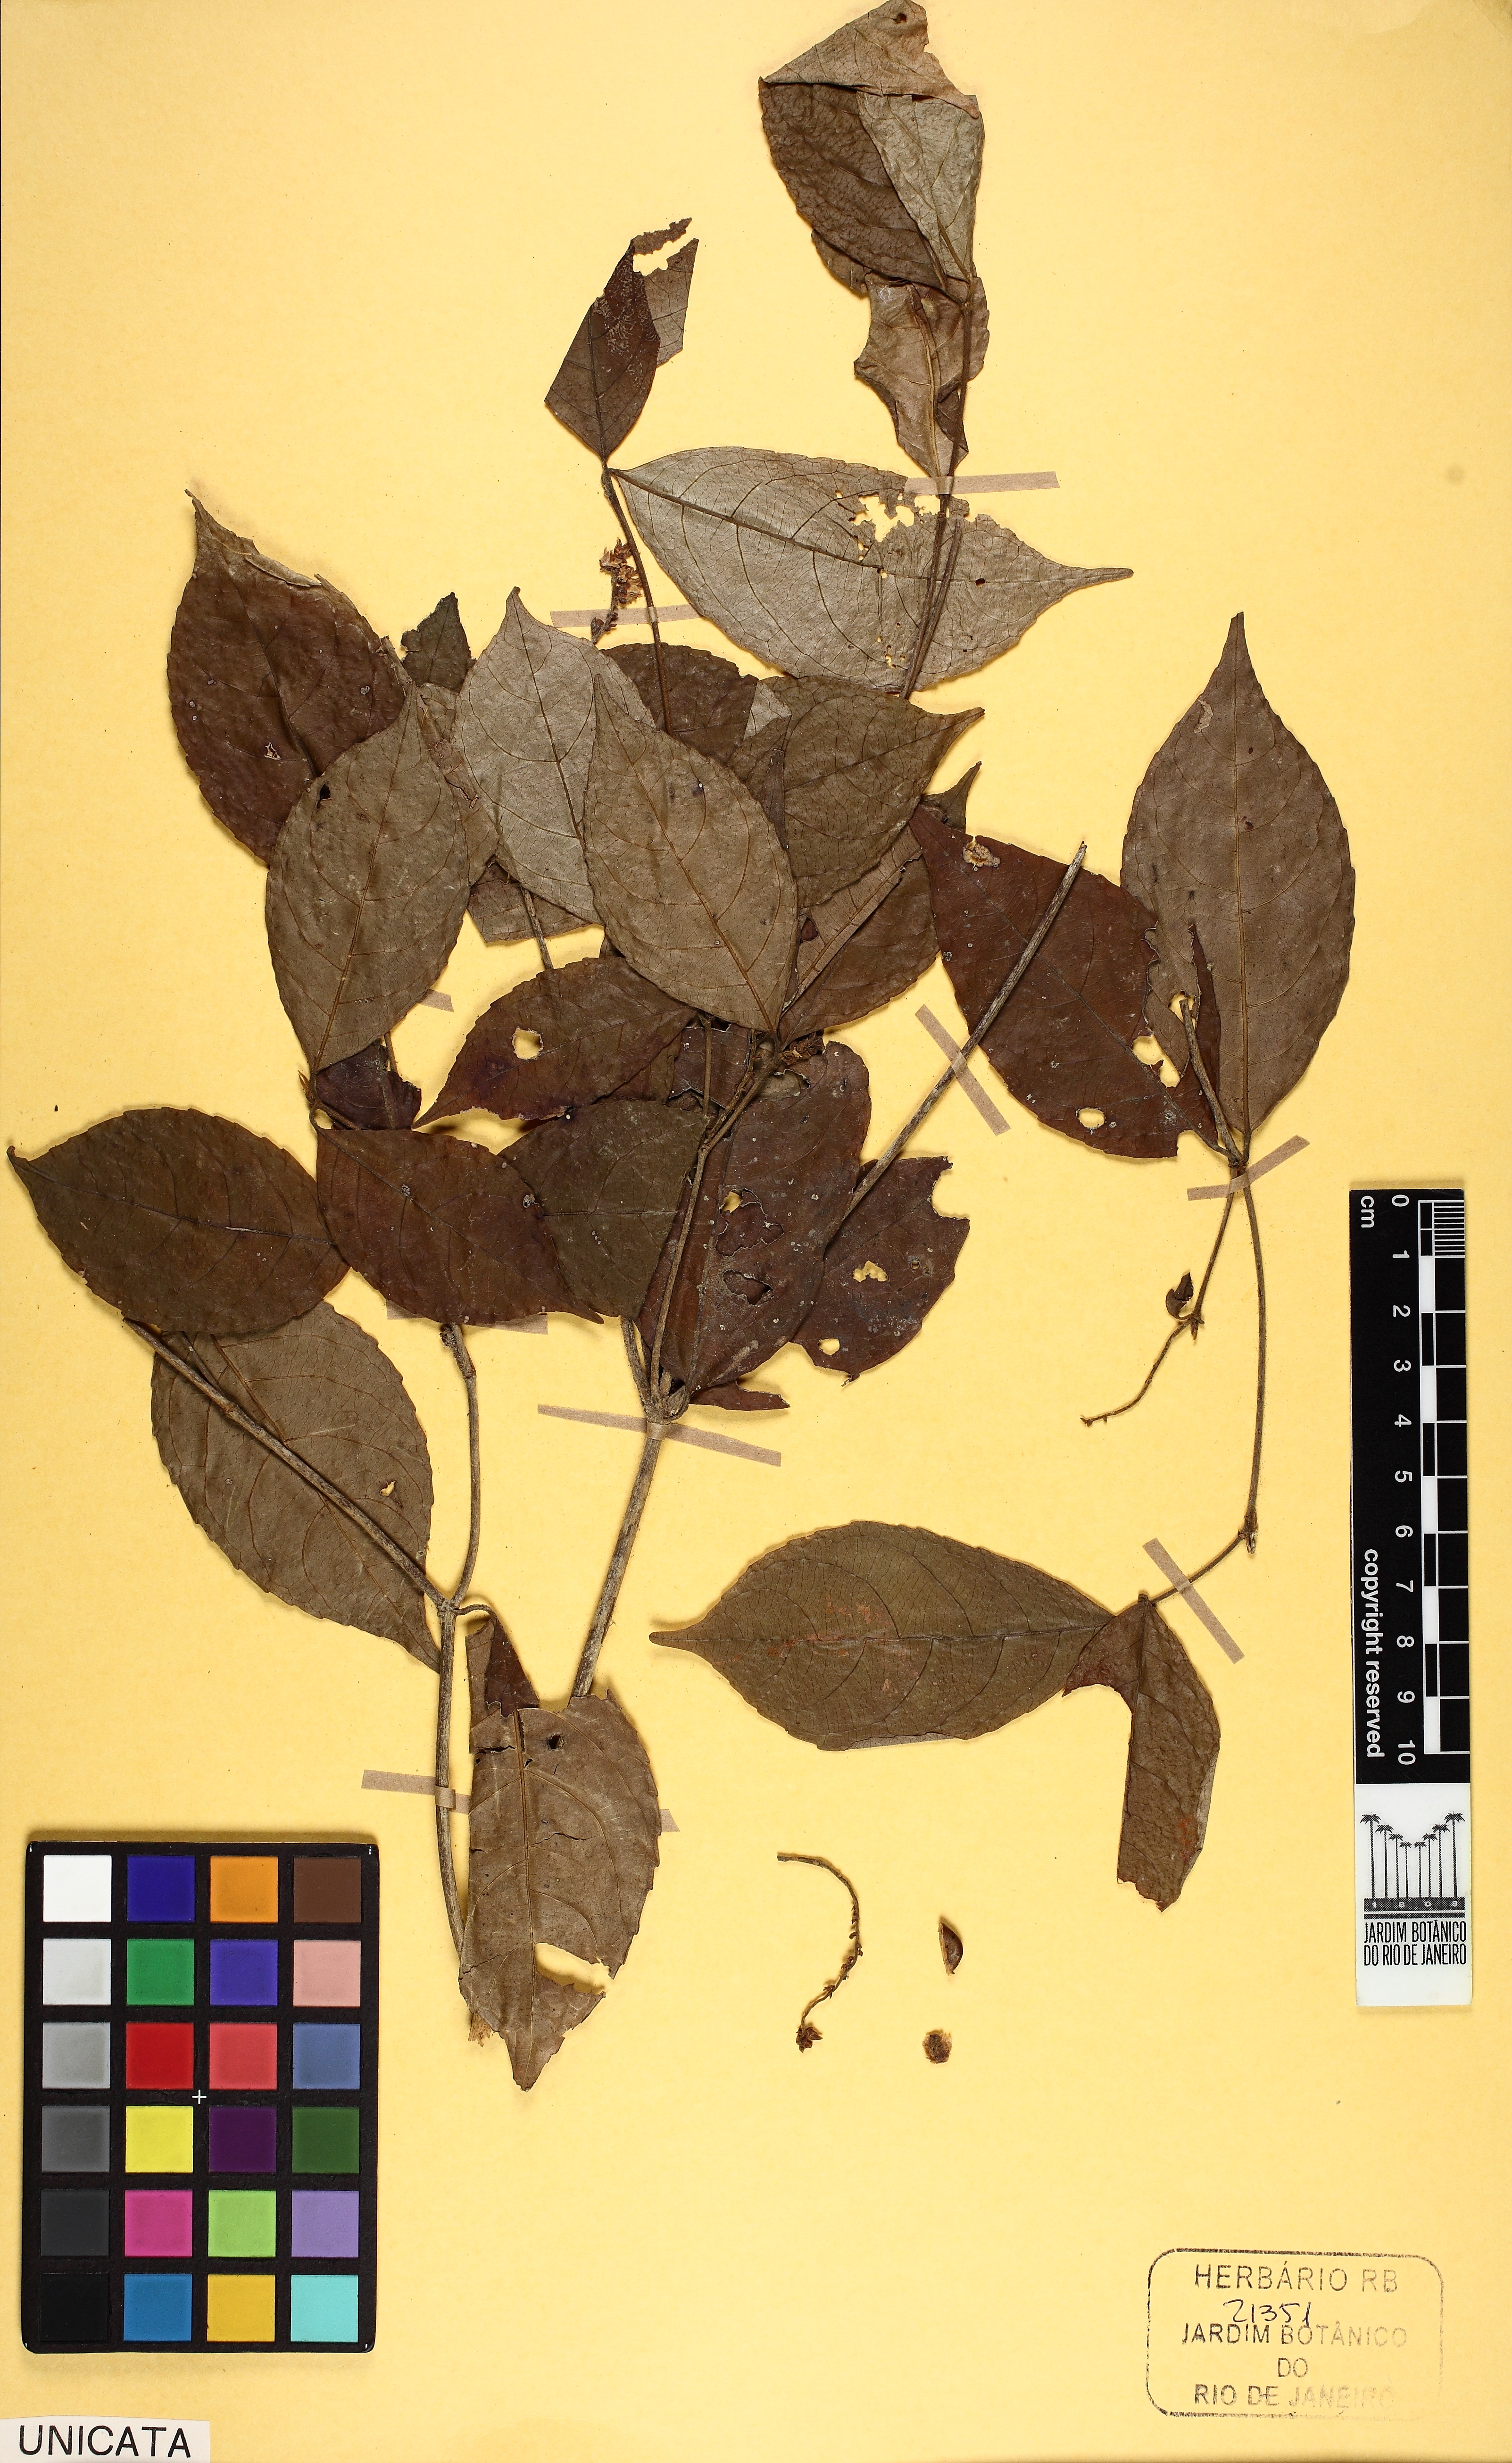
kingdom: Plantae
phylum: Tracheophyta
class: Magnoliopsida
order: Malpighiales
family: Violaceae
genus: Rinorea
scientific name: Rinorea pubiflora
